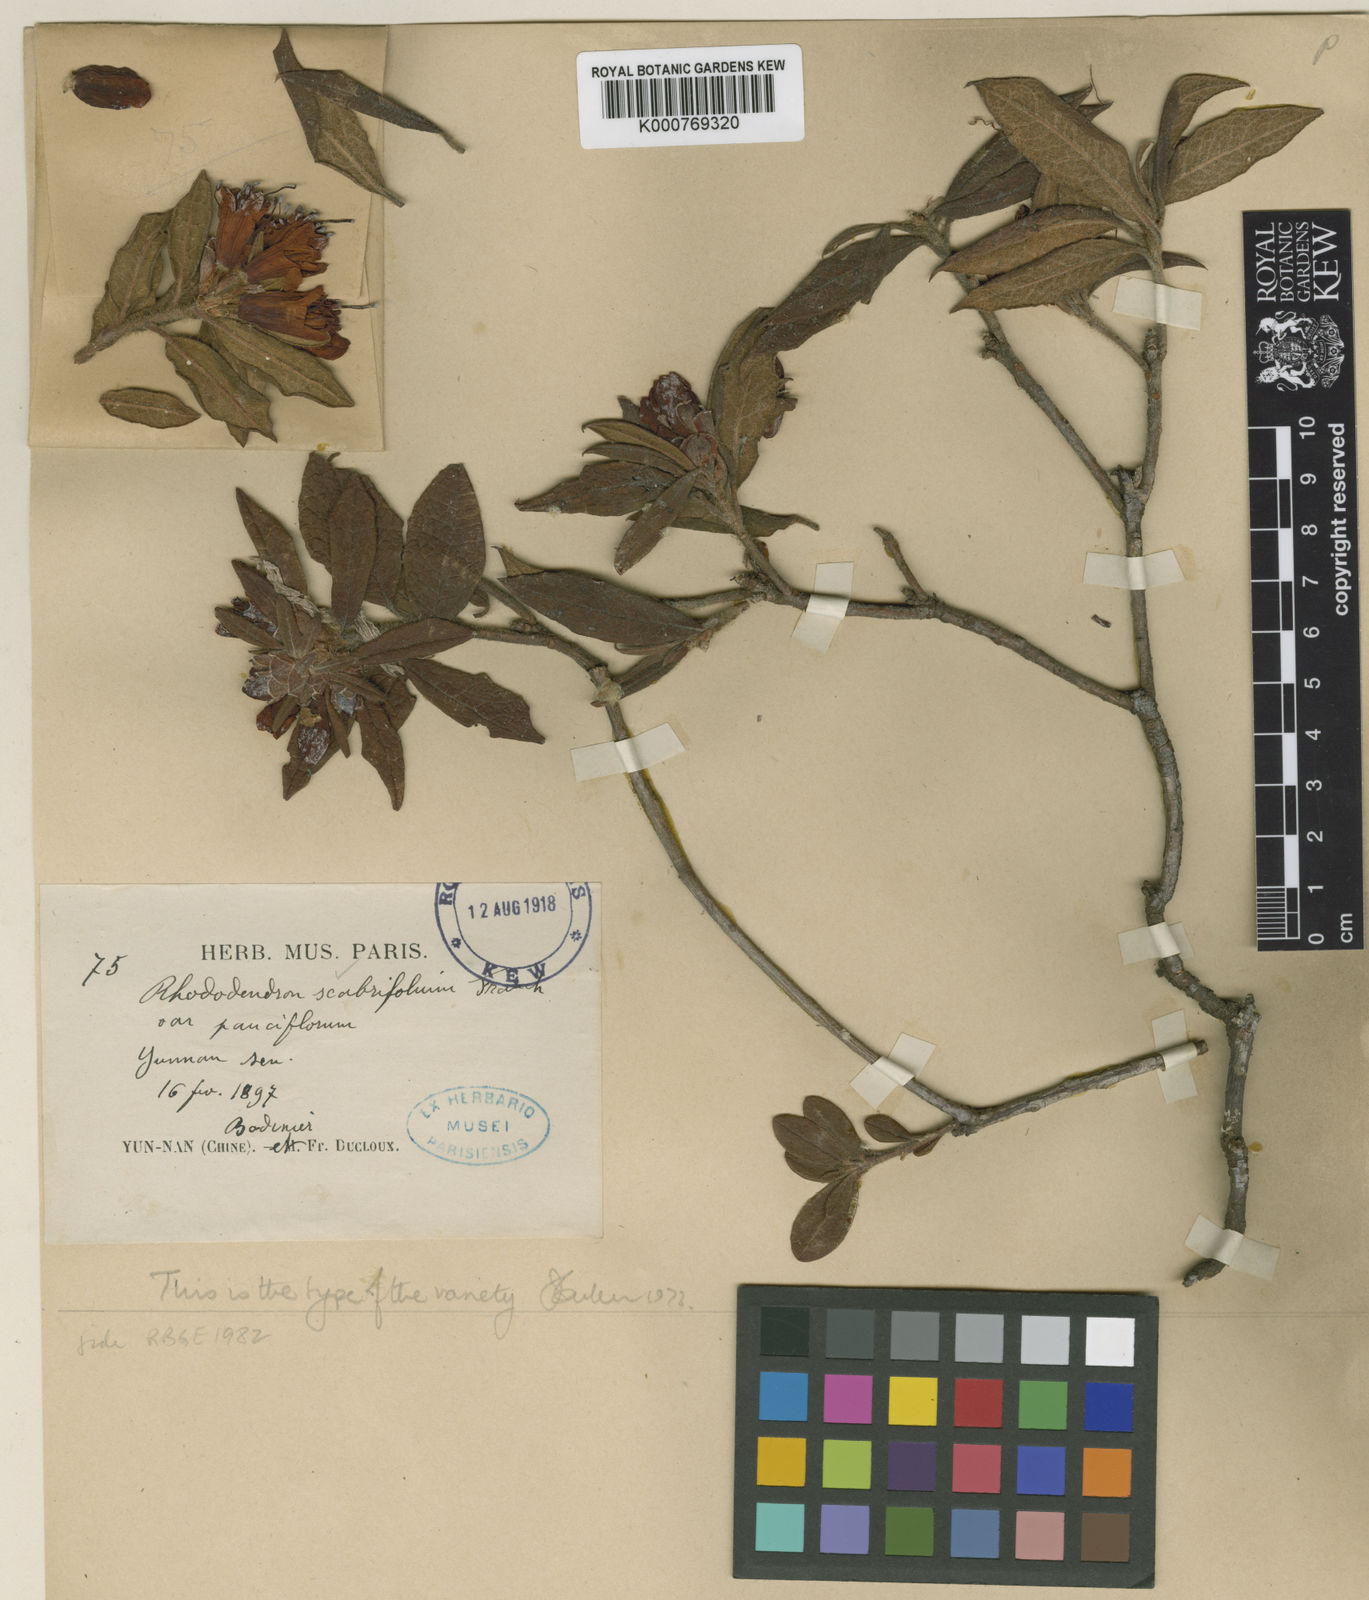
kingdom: Plantae
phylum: Tracheophyta
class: Magnoliopsida
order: Ericales
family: Ericaceae
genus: Rhododendron
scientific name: Rhododendron scabrifolium
